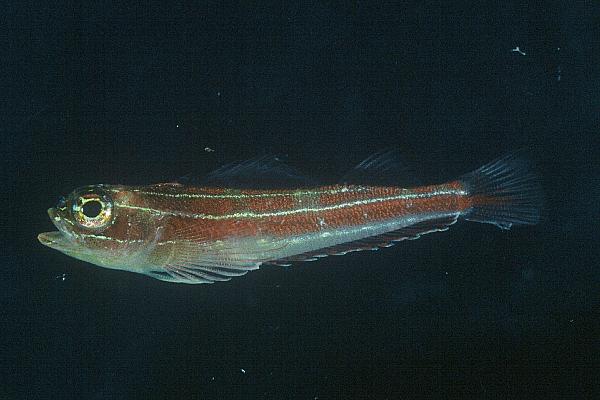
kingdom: Animalia
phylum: Chordata
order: Perciformes
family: Tripterygiidae
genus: Helcogramma
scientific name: Helcogramma striata
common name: Striped threefin
